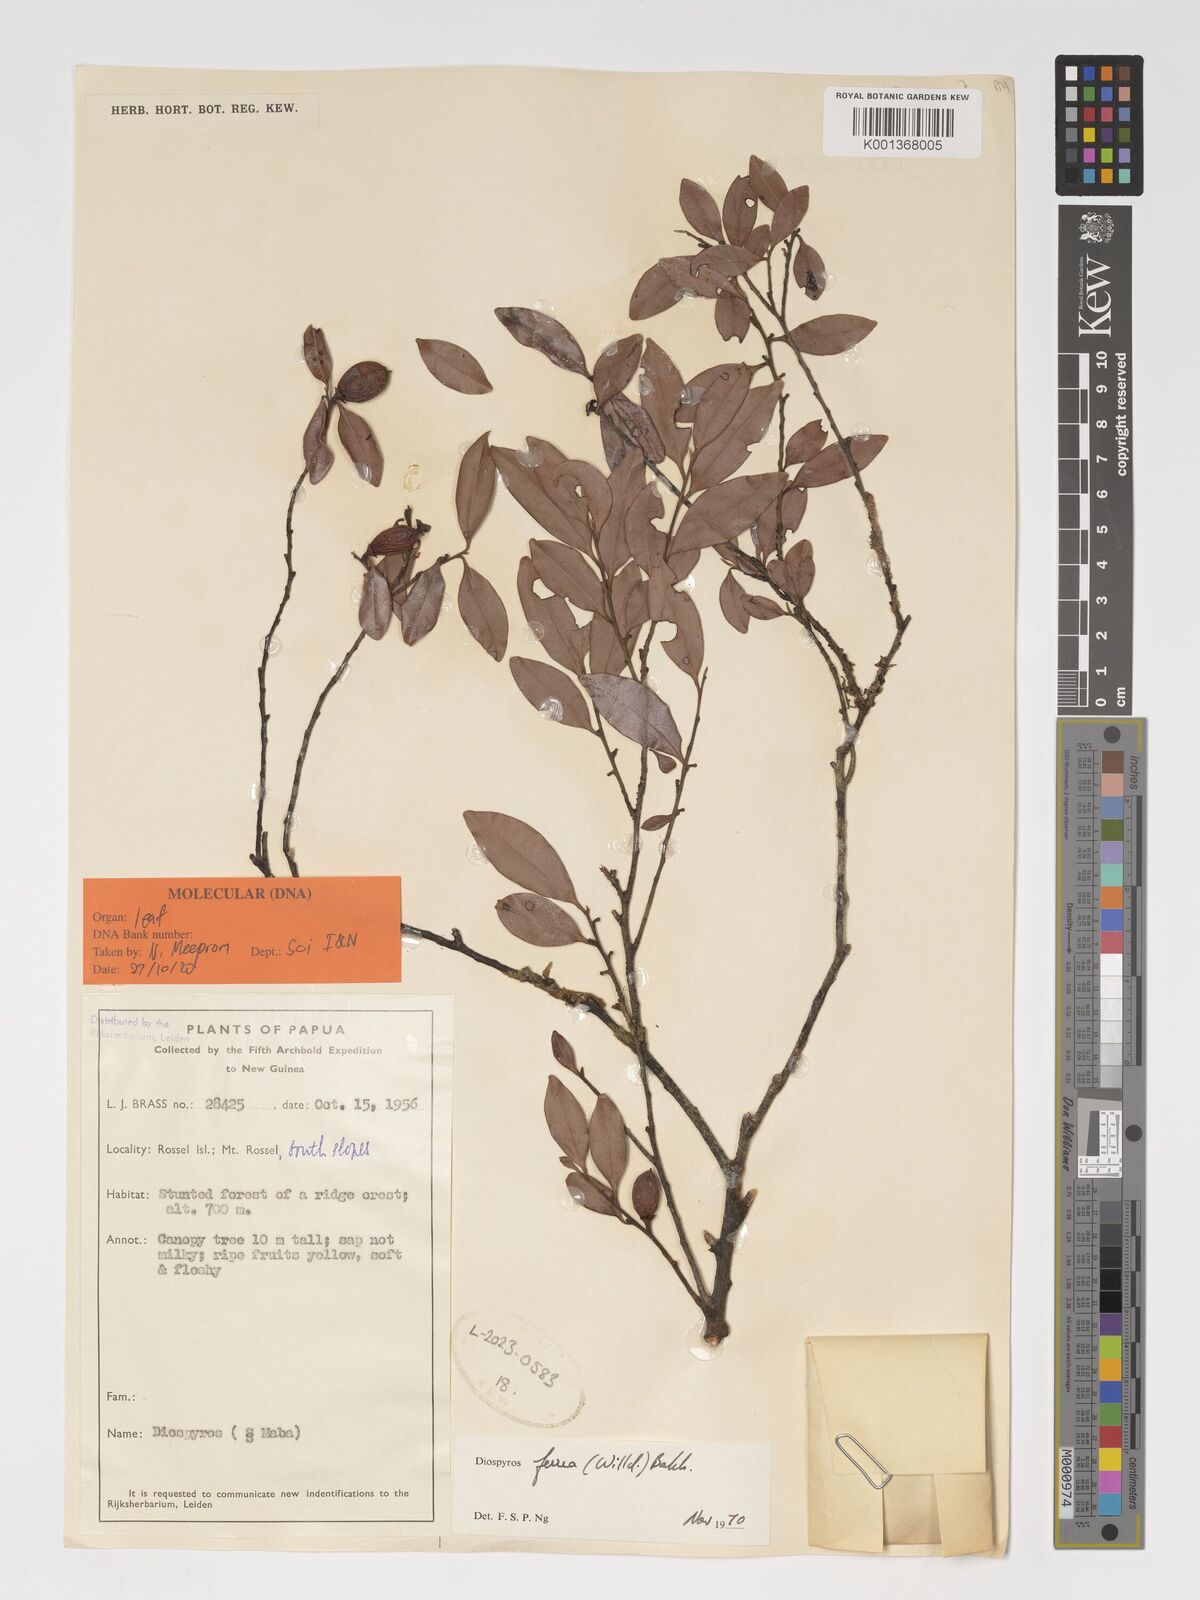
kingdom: Plantae
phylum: Tracheophyta
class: Magnoliopsida
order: Ericales
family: Ebenaceae
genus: Diospyros
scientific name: Diospyros
